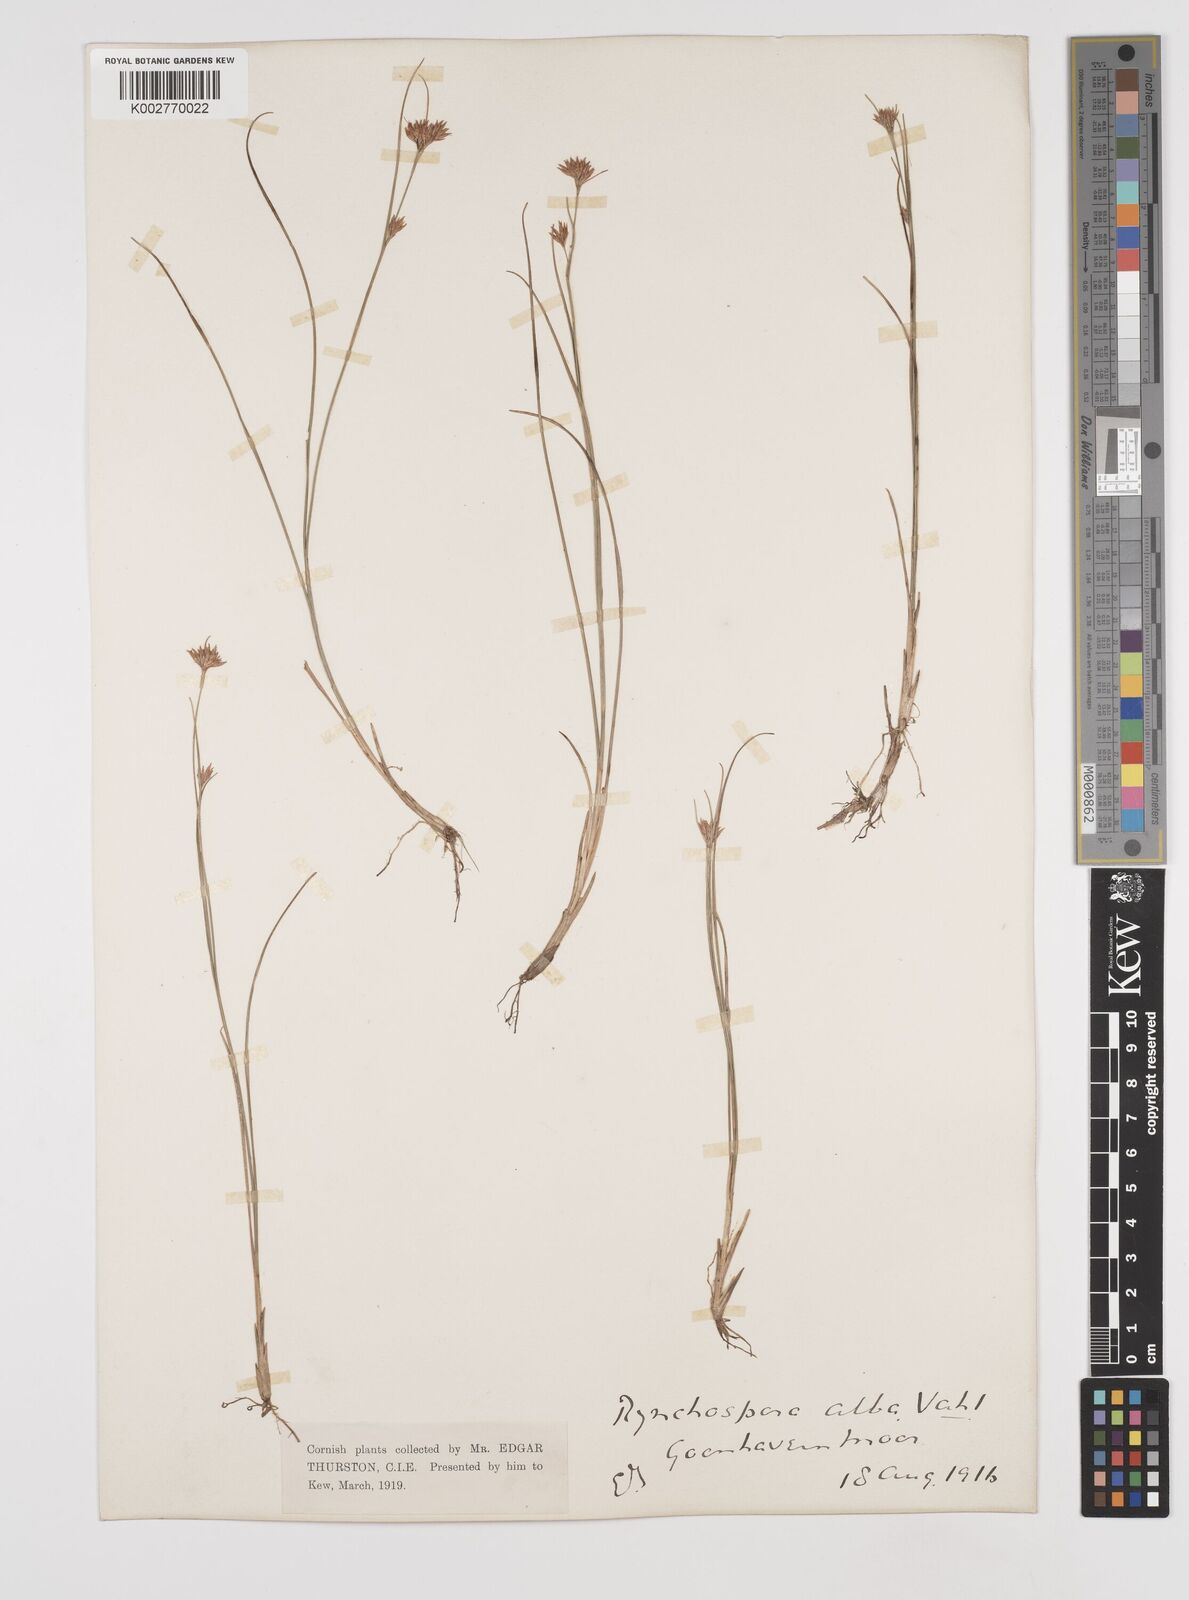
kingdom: Plantae
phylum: Tracheophyta
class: Liliopsida
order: Poales
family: Cyperaceae
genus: Rhynchospora
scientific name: Rhynchospora alba
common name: White beak-sedge
